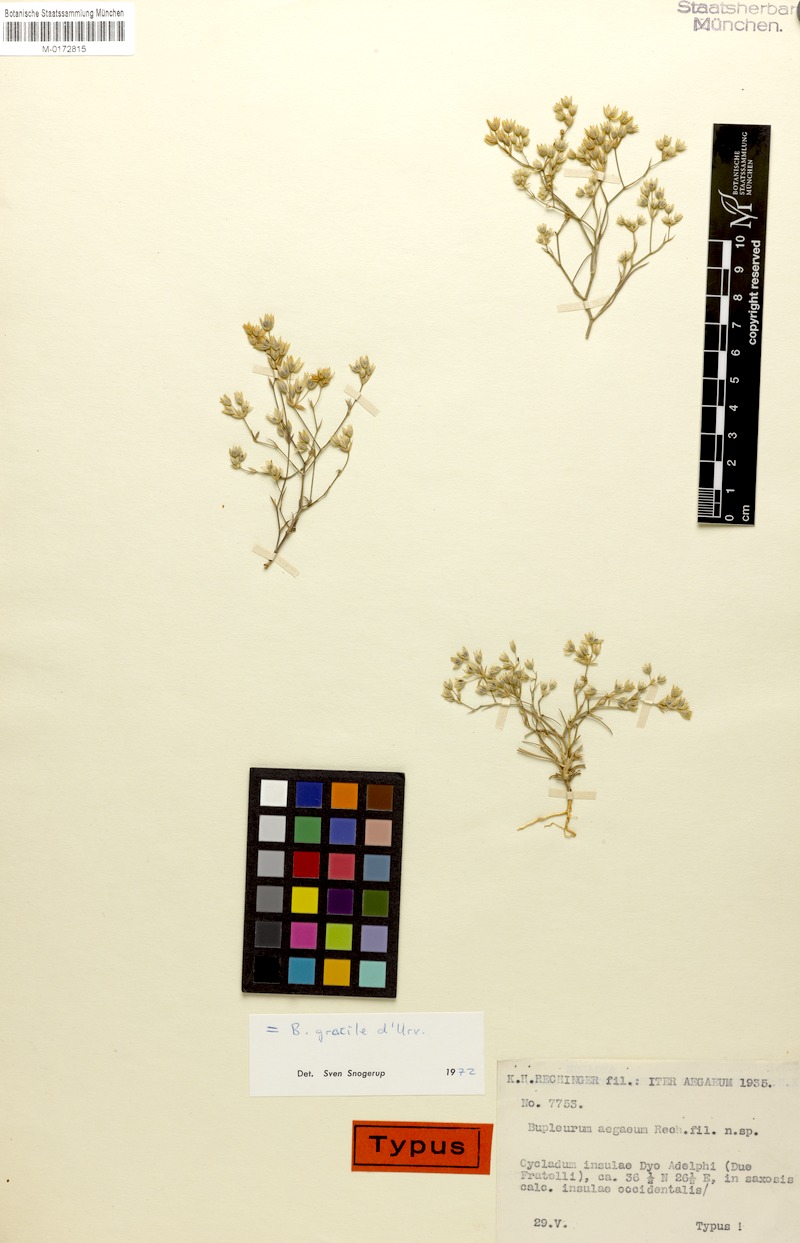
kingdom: Plantae
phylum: Tracheophyta
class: Magnoliopsida
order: Apiales
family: Apiaceae
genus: Bupleurum
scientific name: Bupleurum gracile
